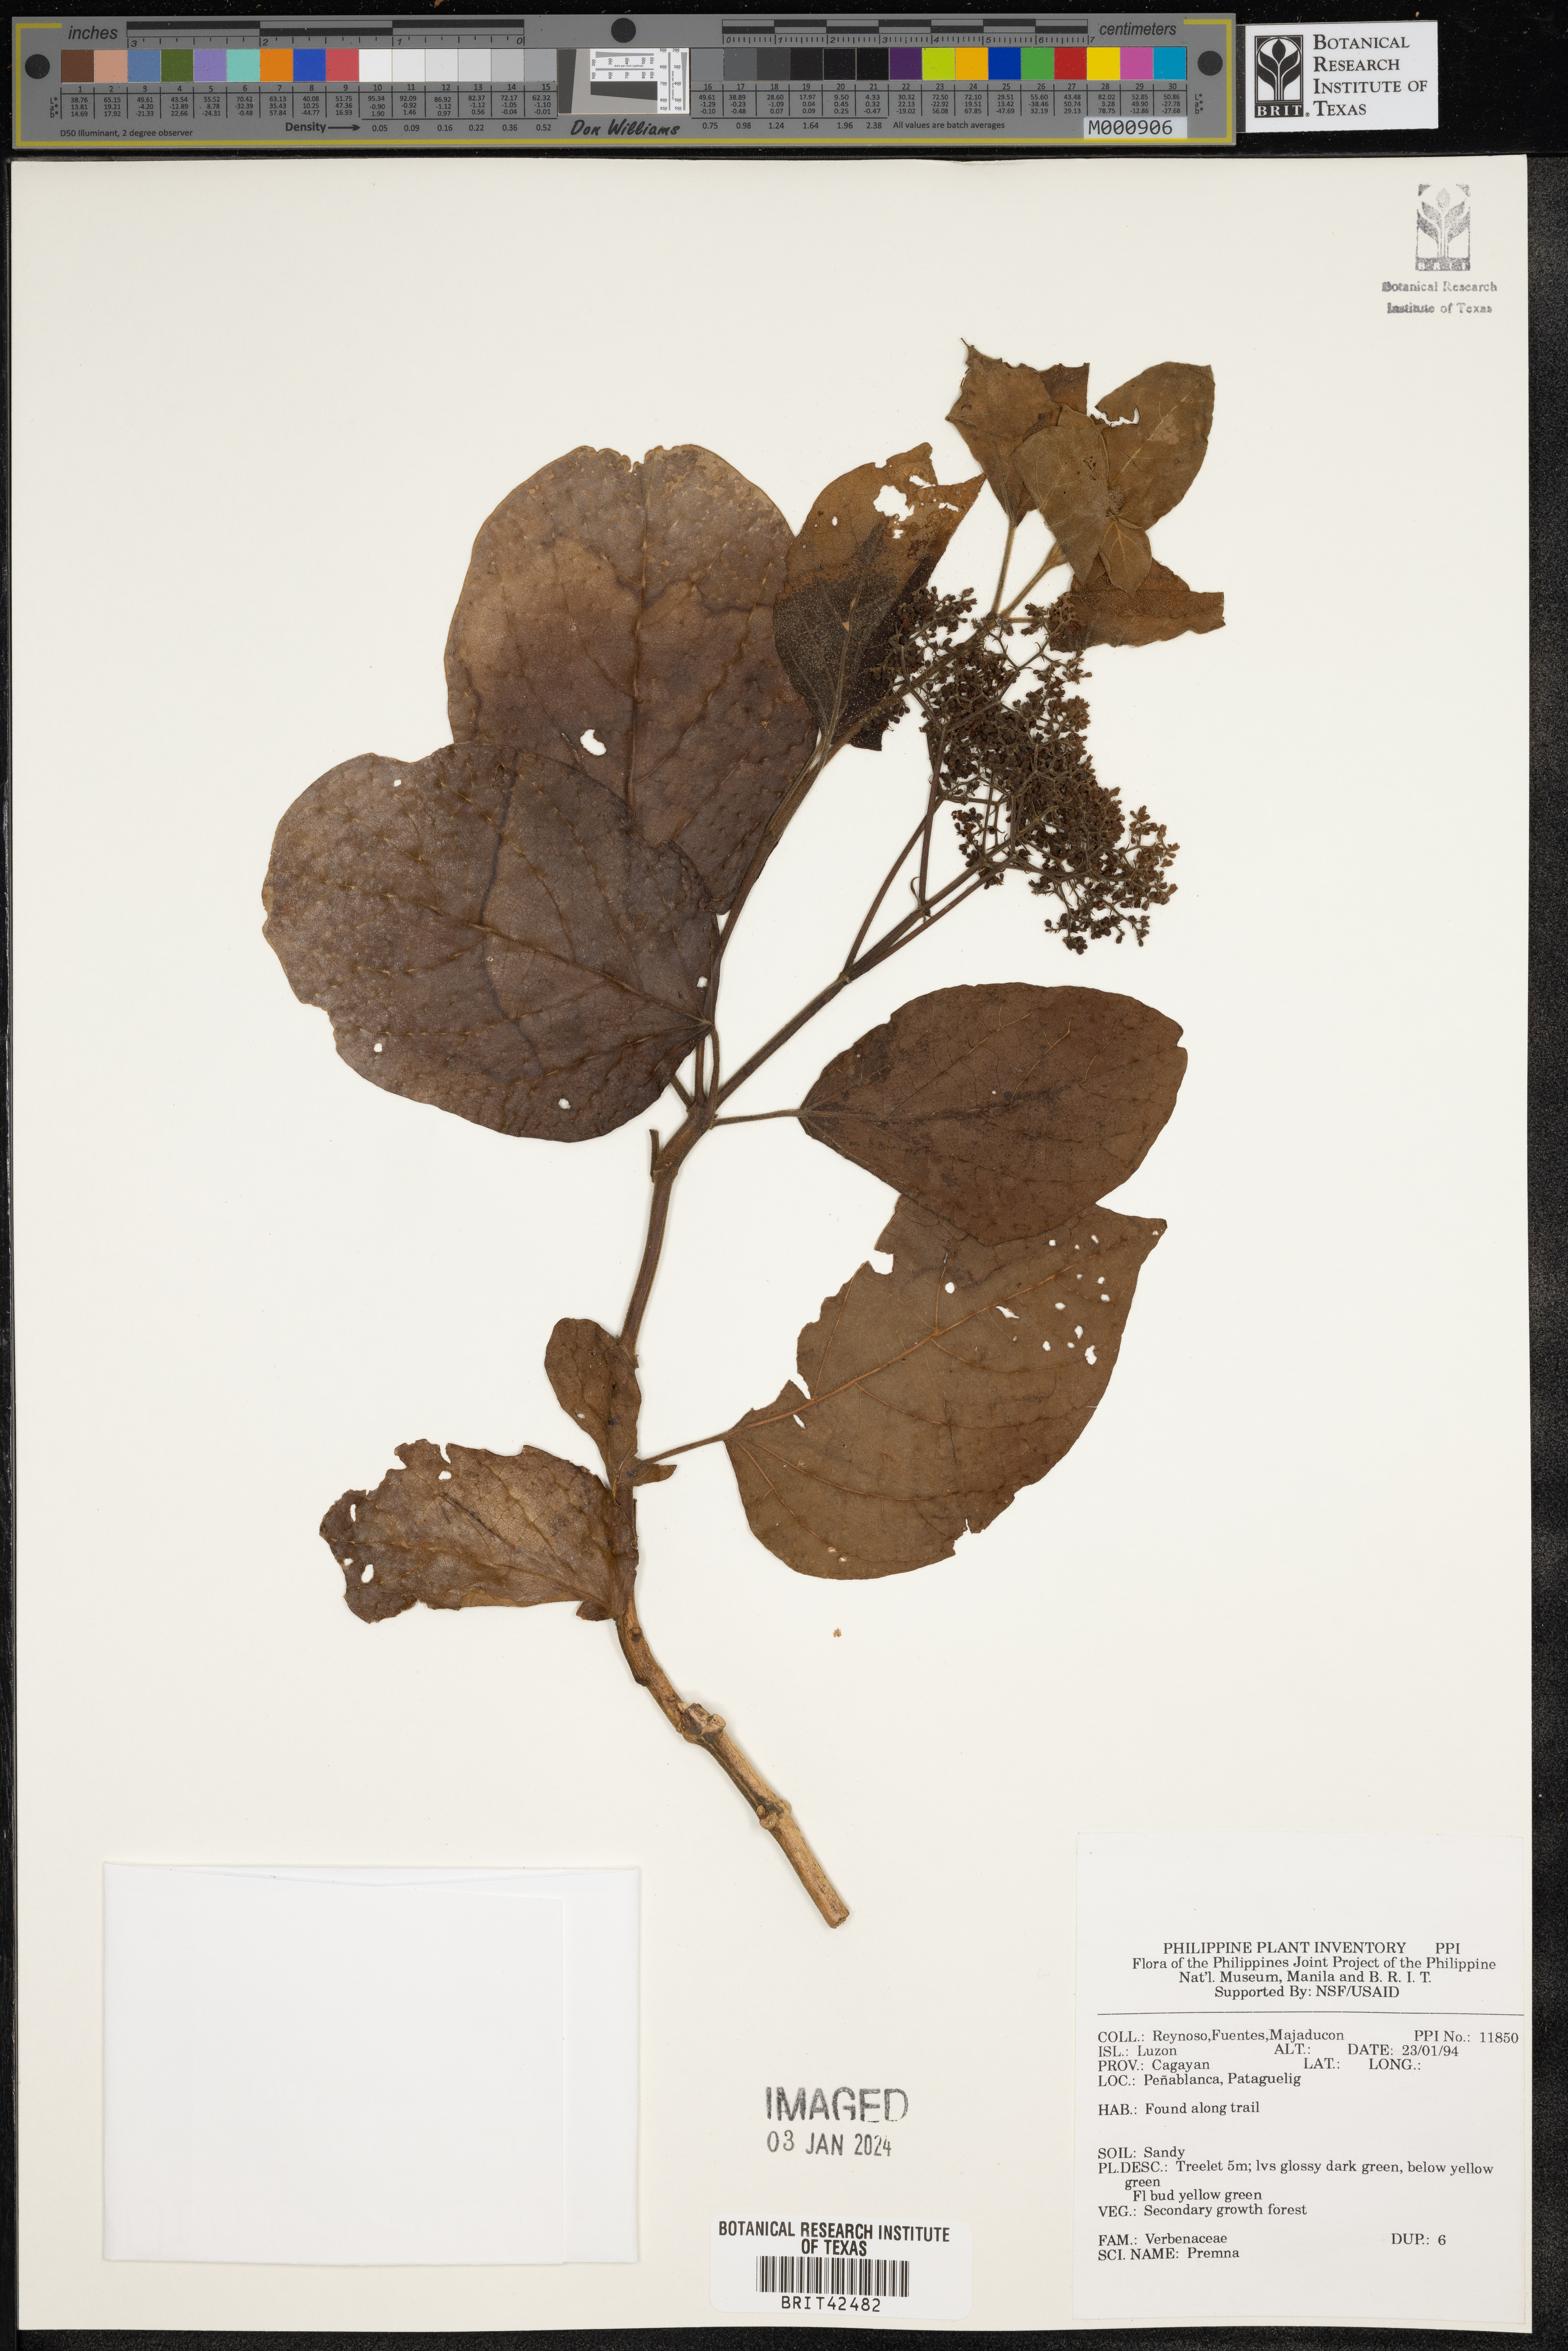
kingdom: Plantae
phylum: Tracheophyta
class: Magnoliopsida
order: Lamiales
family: Lamiaceae
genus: Premna
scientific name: Premna
